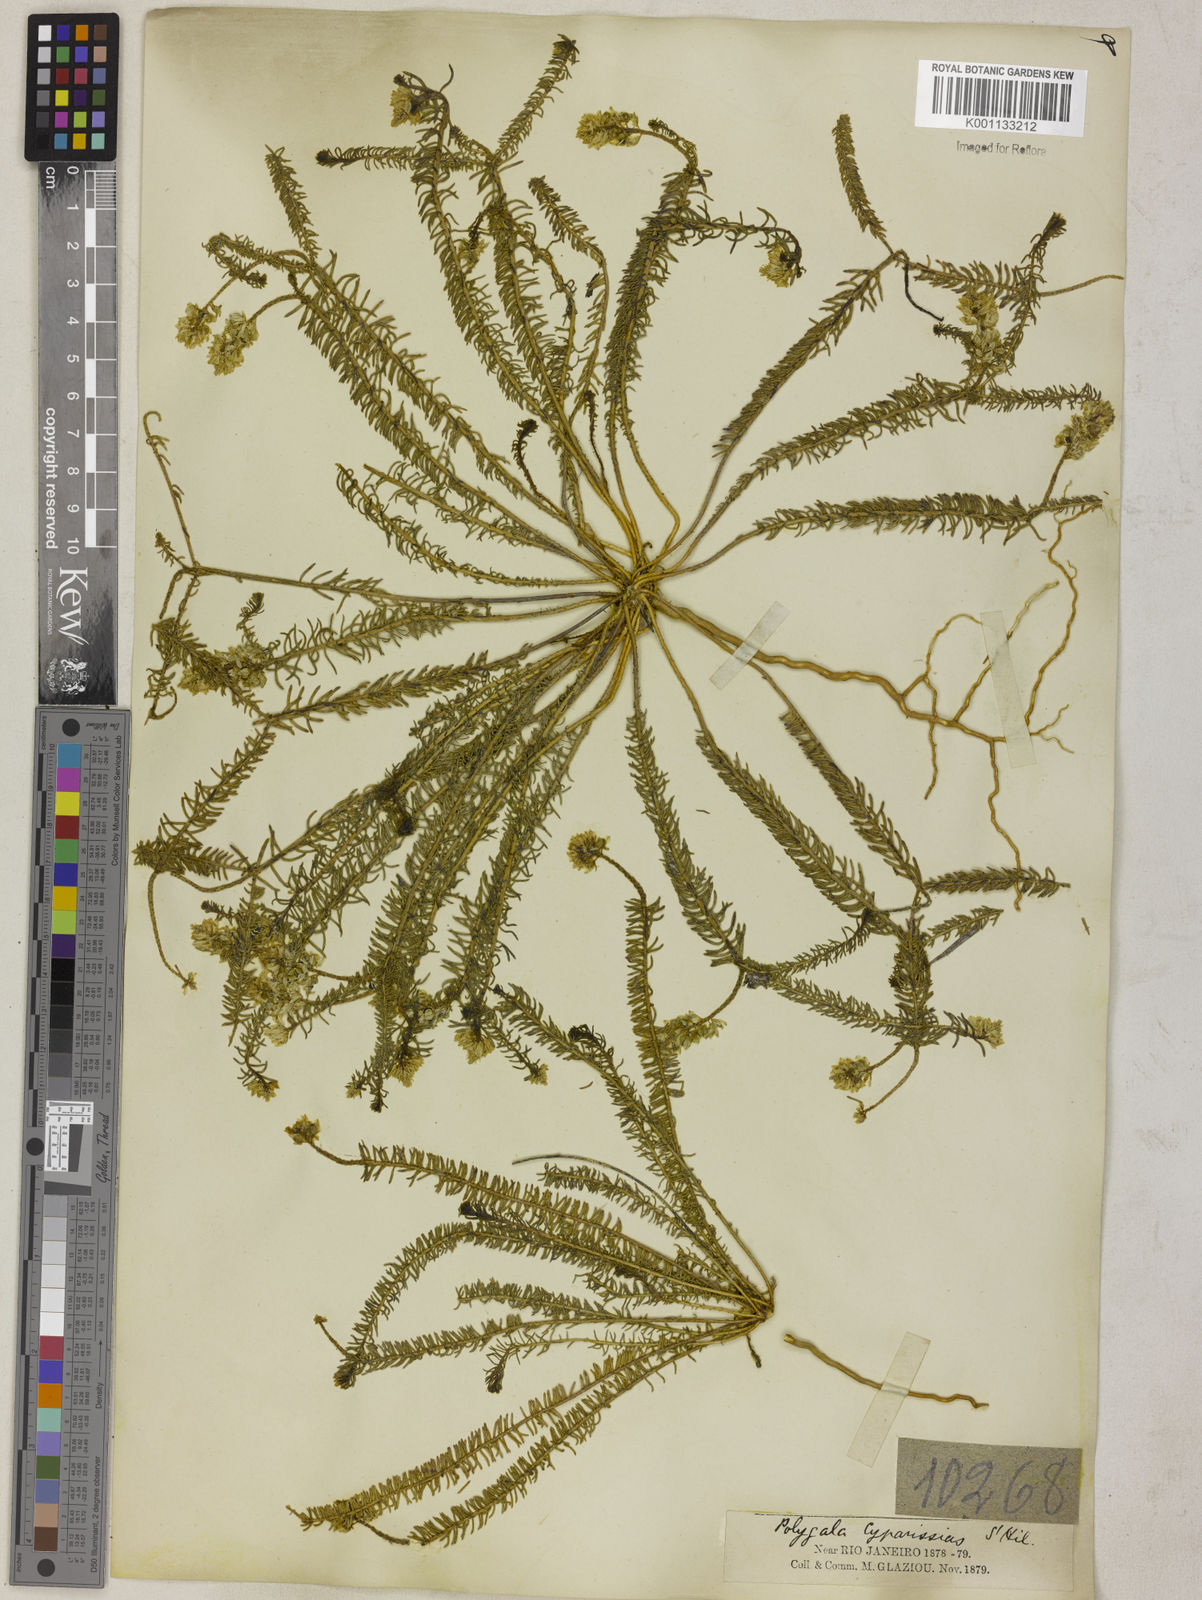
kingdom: Plantae
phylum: Tracheophyta
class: Magnoliopsida
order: Fabales
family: Polygalaceae
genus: Polygala
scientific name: Polygala cyparissias
